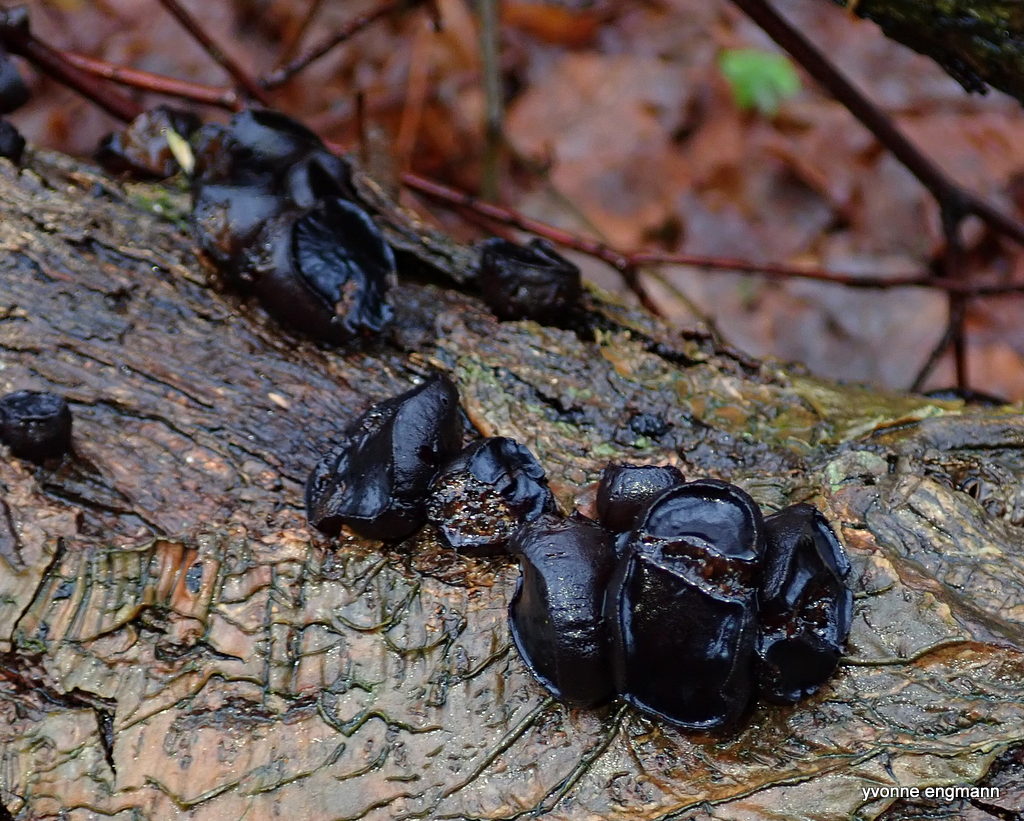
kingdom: Fungi
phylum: Ascomycota
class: Leotiomycetes
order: Phacidiales
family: Phacidiaceae
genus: Bulgaria
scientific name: Bulgaria inquinans
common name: afsmittende topsvamp
